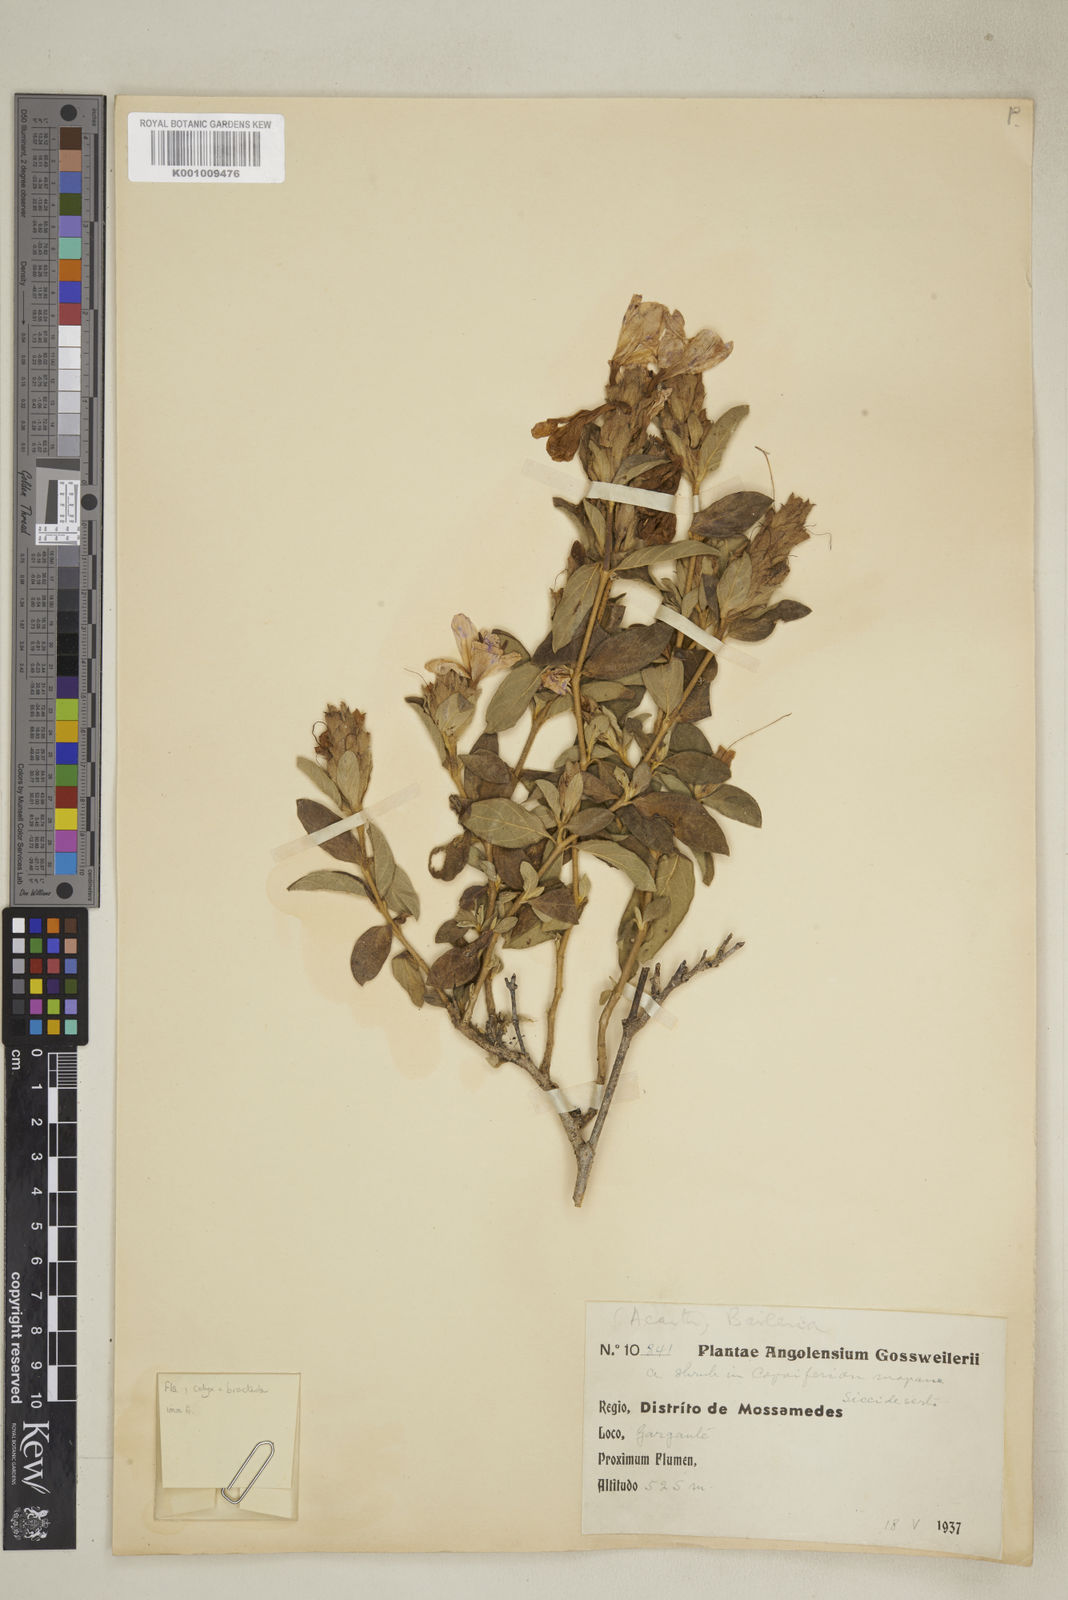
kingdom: Plantae
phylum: Tracheophyta
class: Magnoliopsida
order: Lamiales
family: Acanthaceae
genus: Barleria
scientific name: Barleria taitensis
